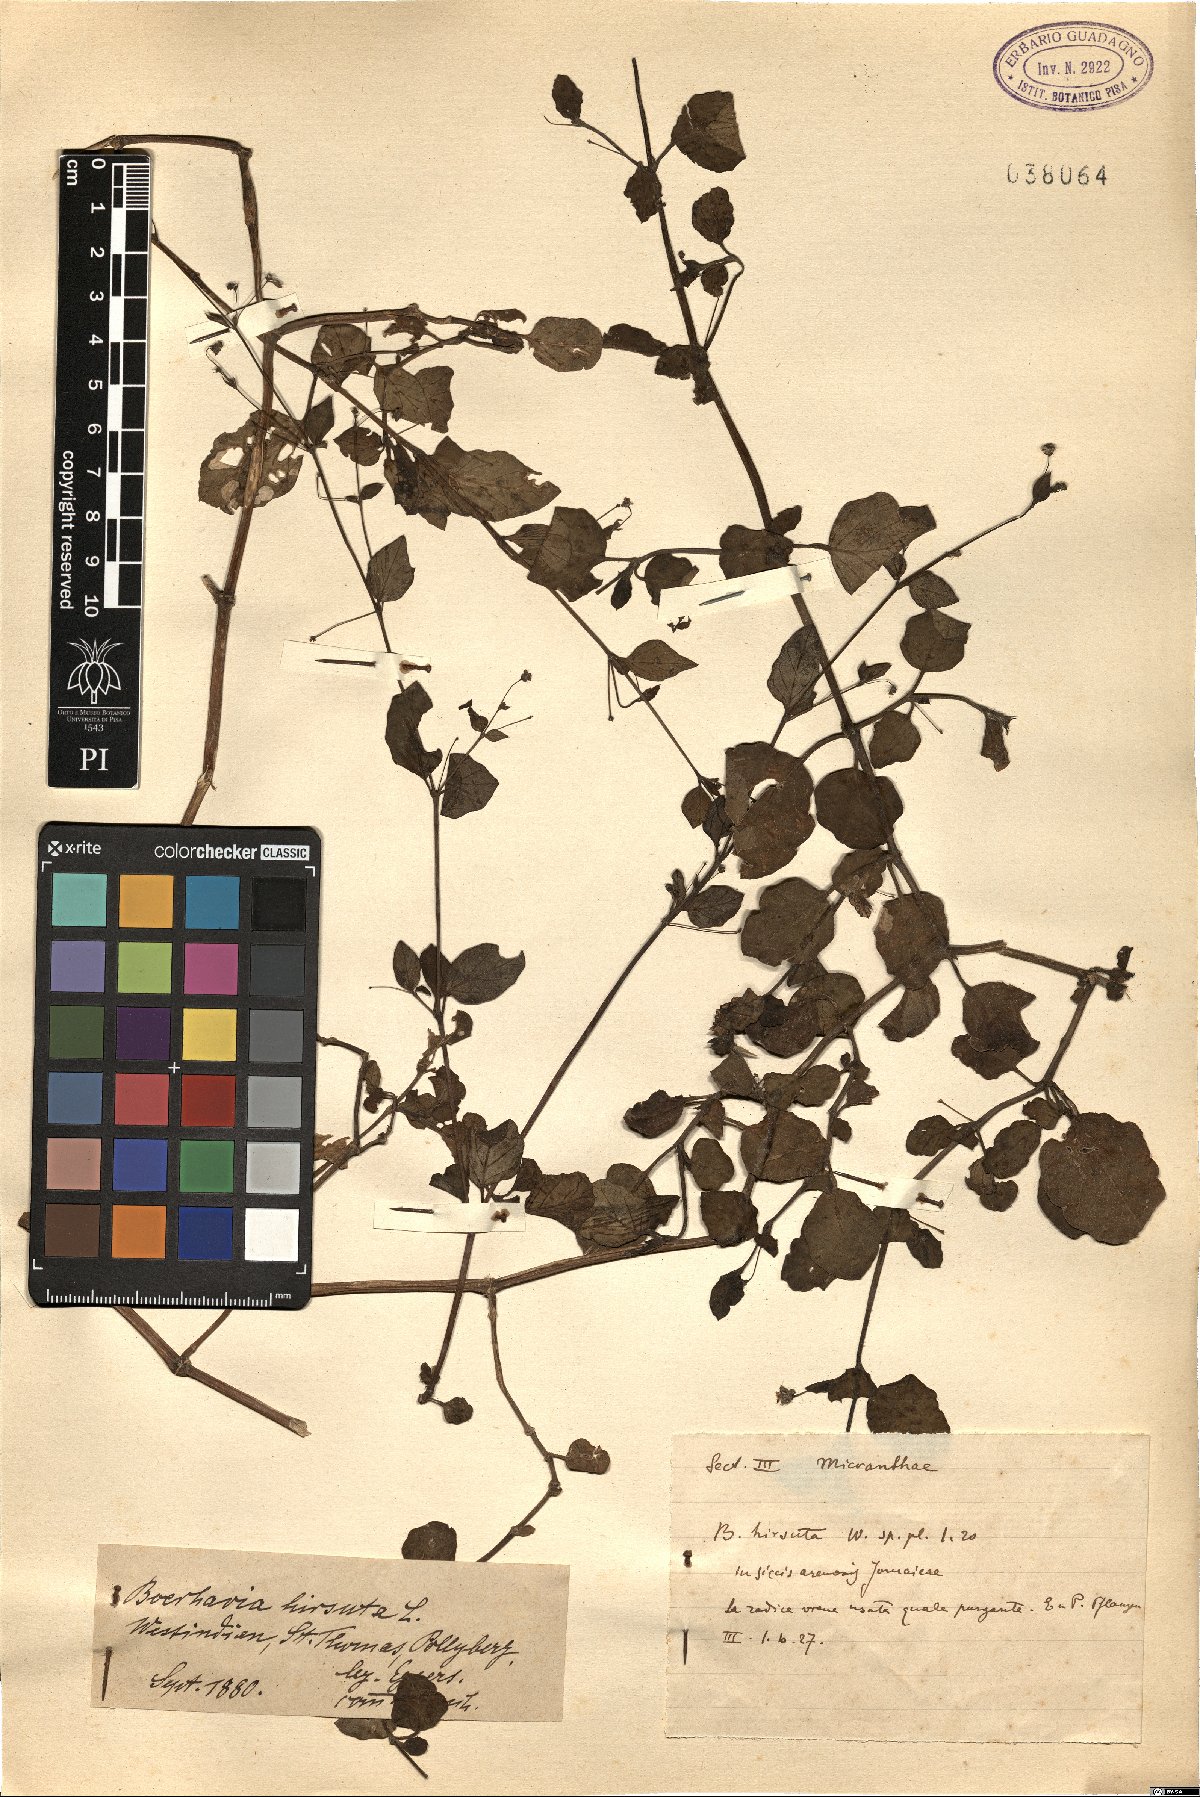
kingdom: Plantae
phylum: Tracheophyta
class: Magnoliopsida
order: Caryophyllales
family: Nyctaginaceae
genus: Boerhavia
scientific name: Boerhavia repens
